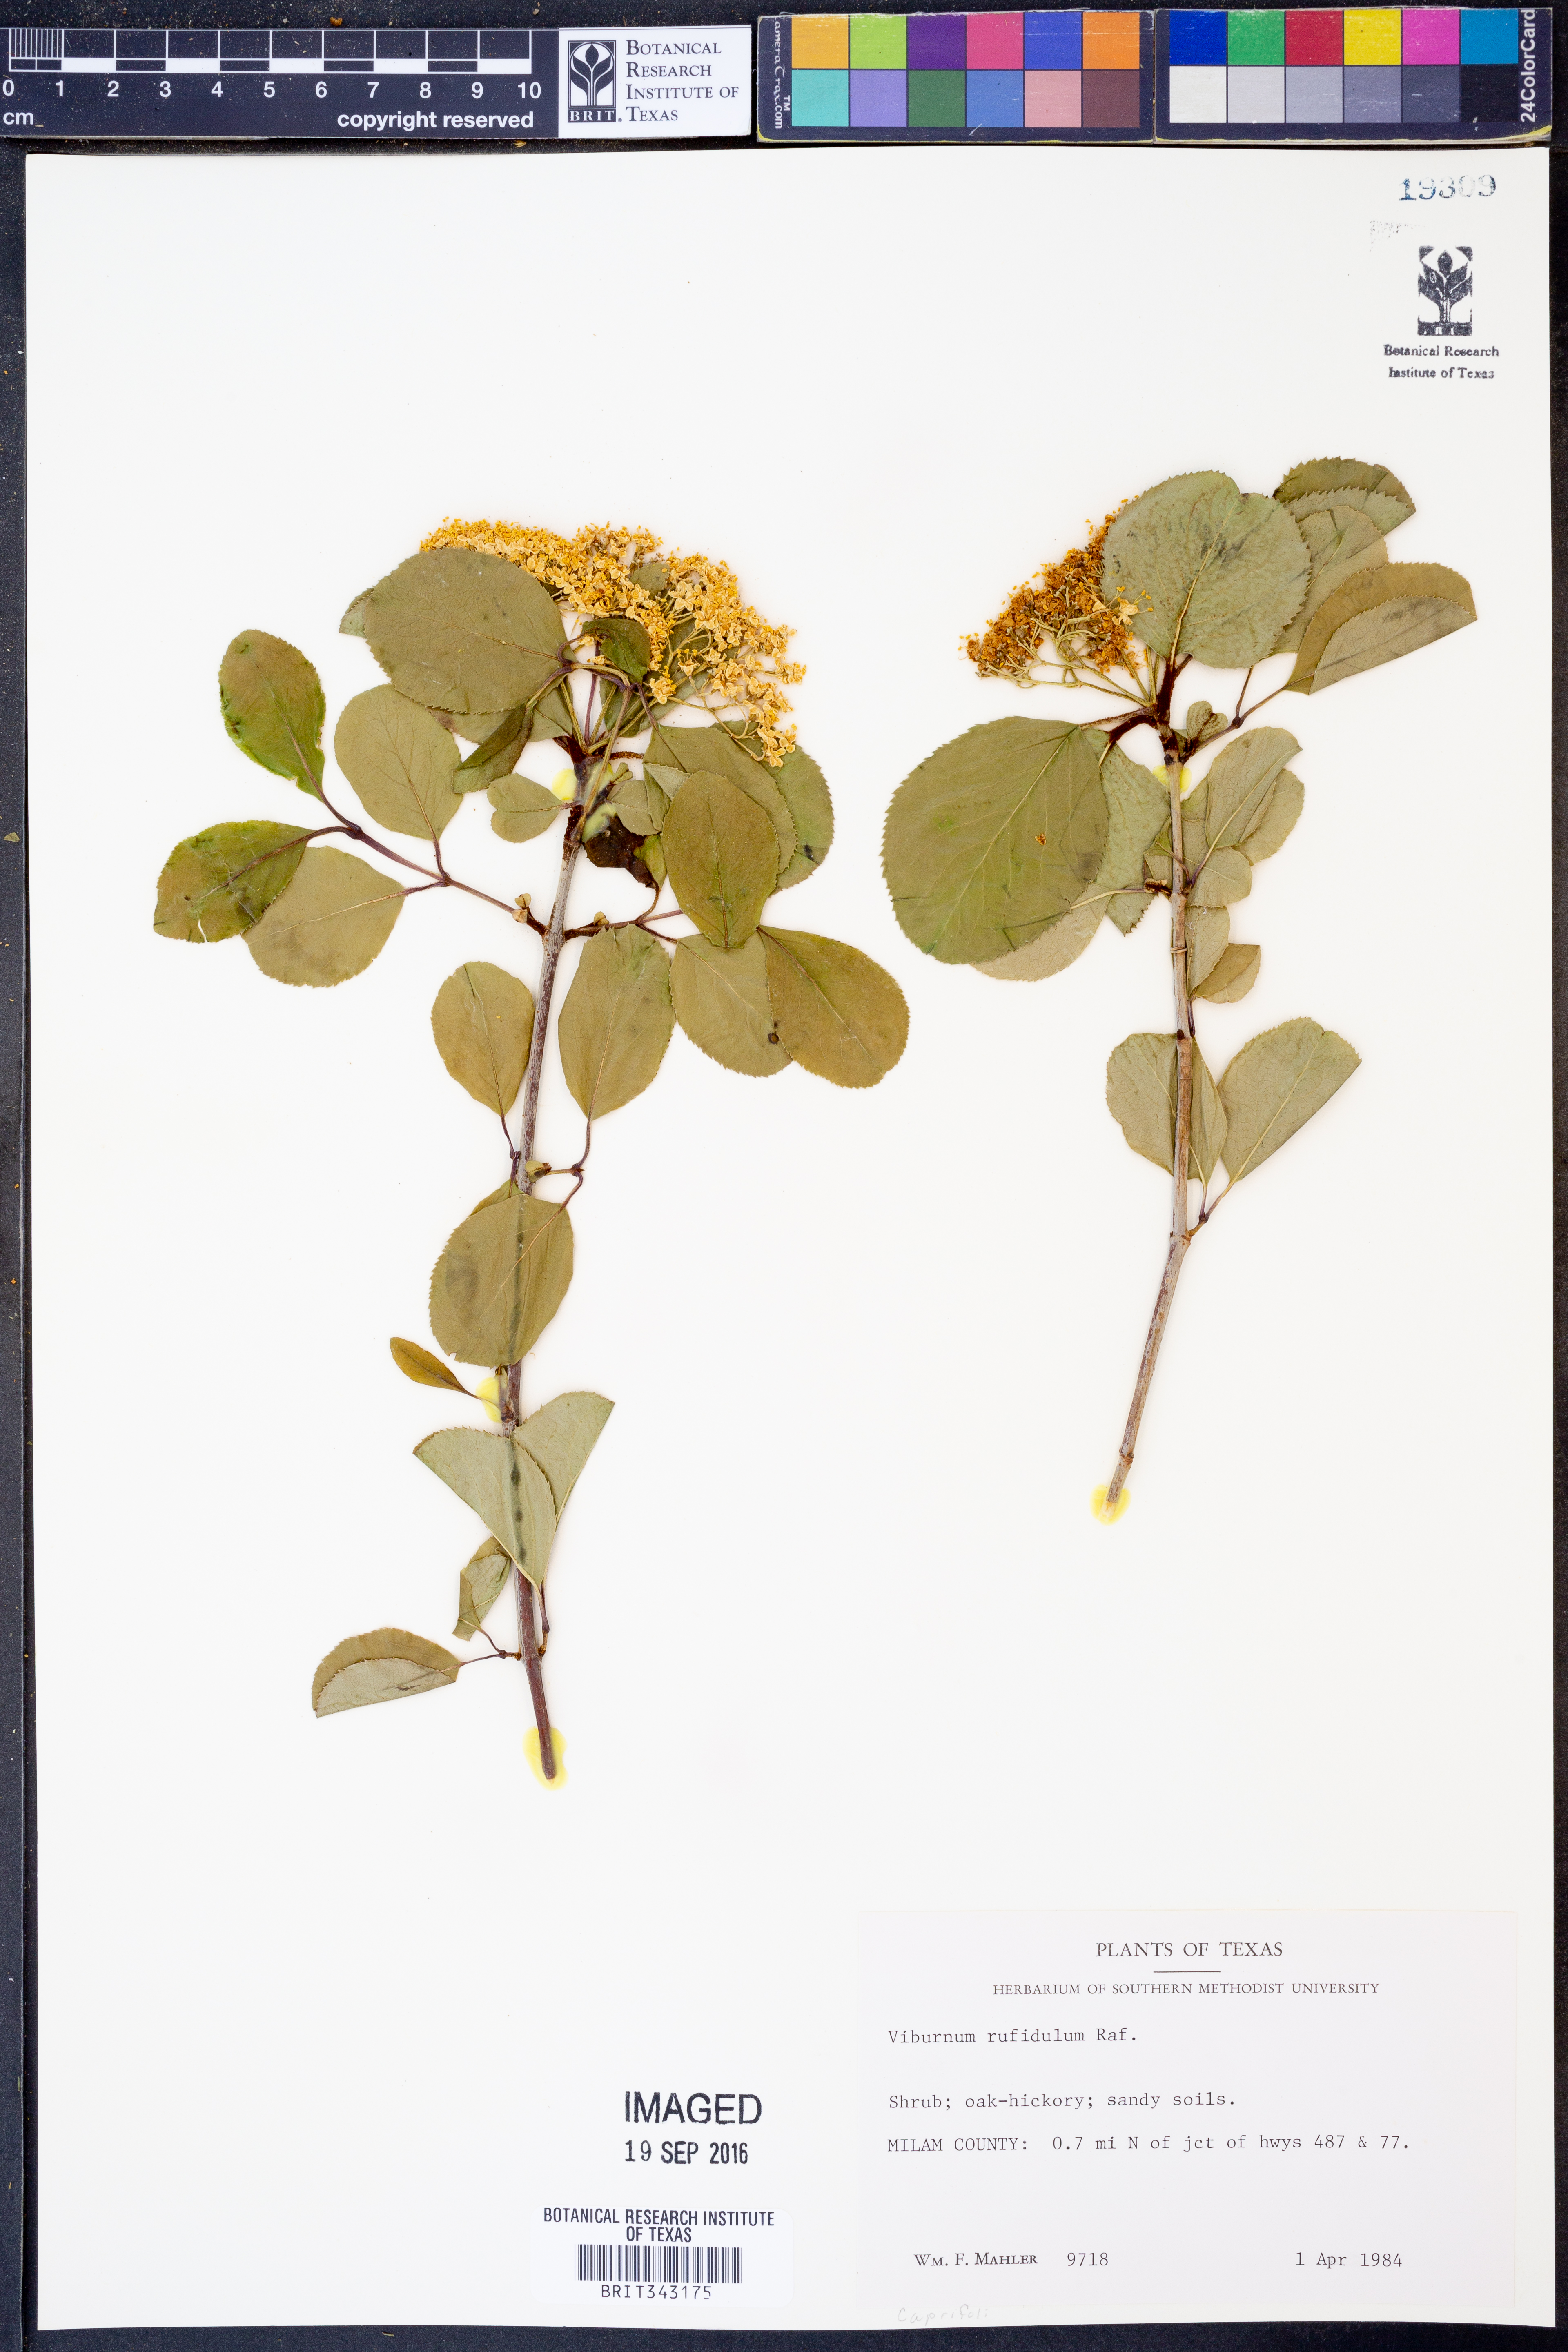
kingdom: Plantae
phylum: Tracheophyta
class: Magnoliopsida
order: Dipsacales
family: Viburnaceae
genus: Viburnum
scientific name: Viburnum rufidulum
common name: Blue haw
